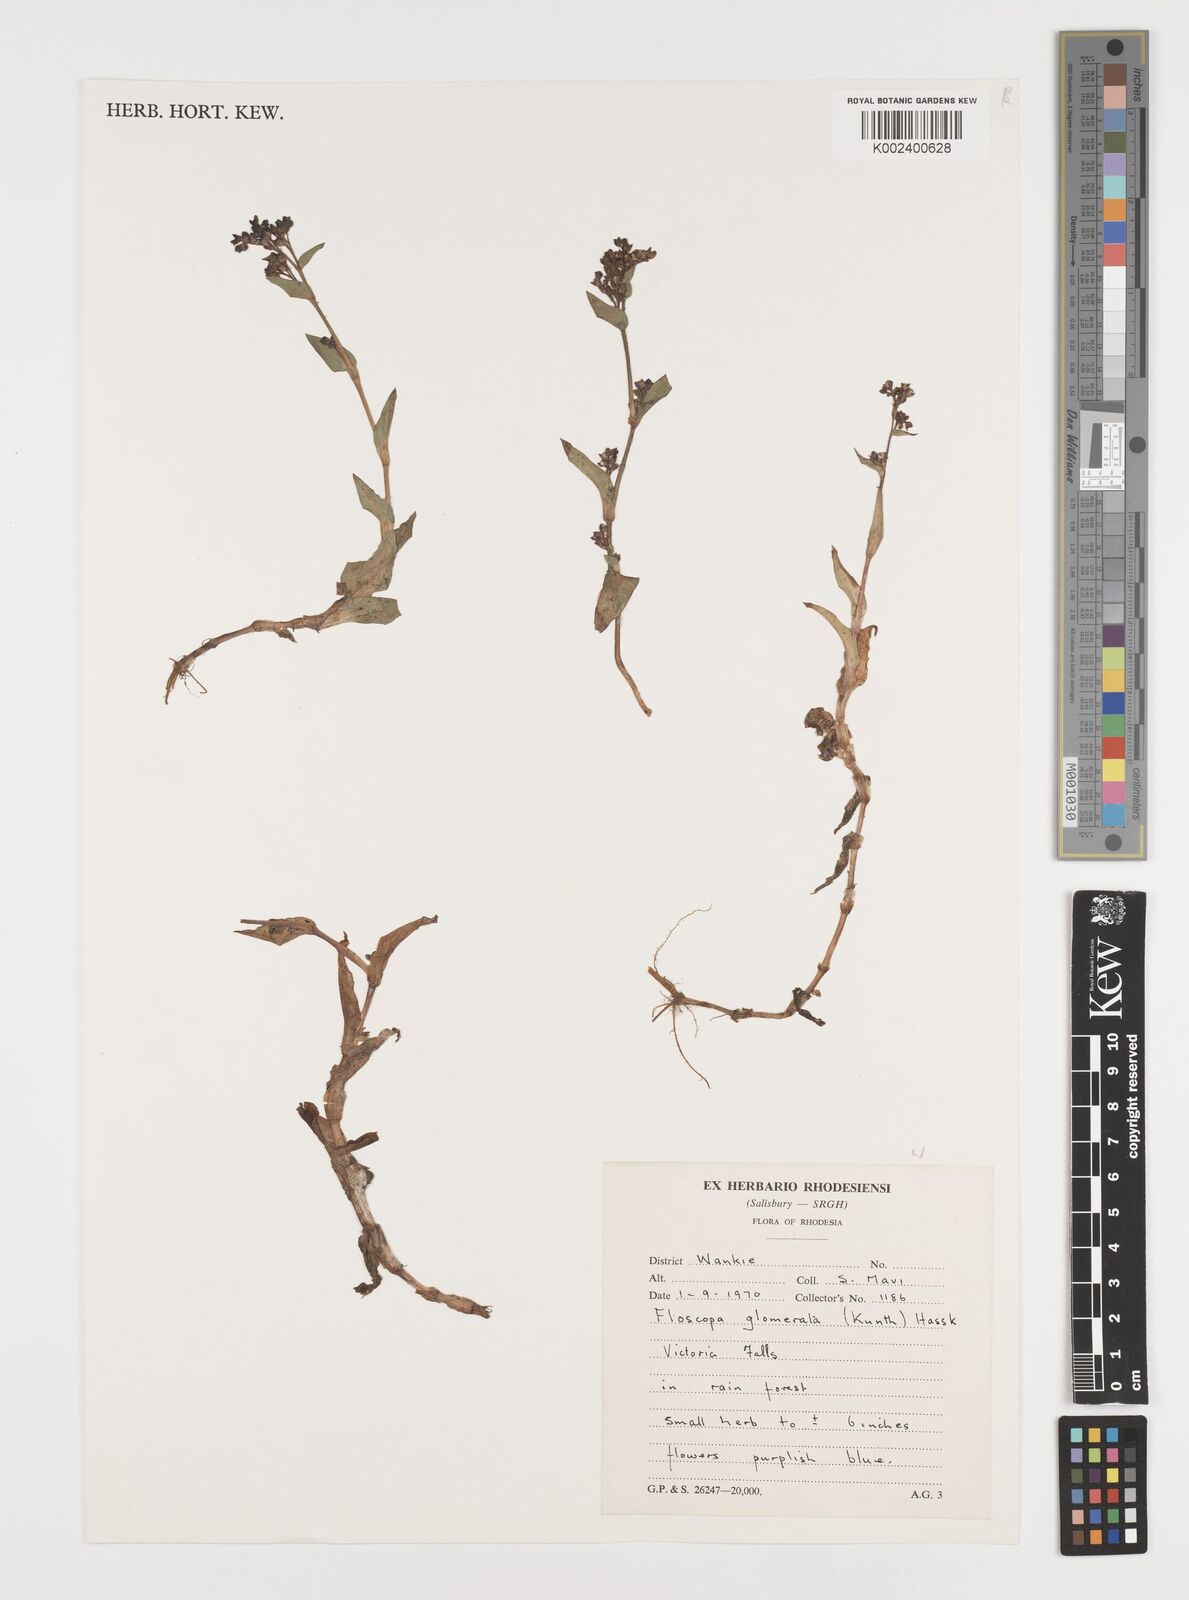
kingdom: Plantae
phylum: Tracheophyta
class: Liliopsida
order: Commelinales
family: Commelinaceae
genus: Floscopa
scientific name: Floscopa glomerata
